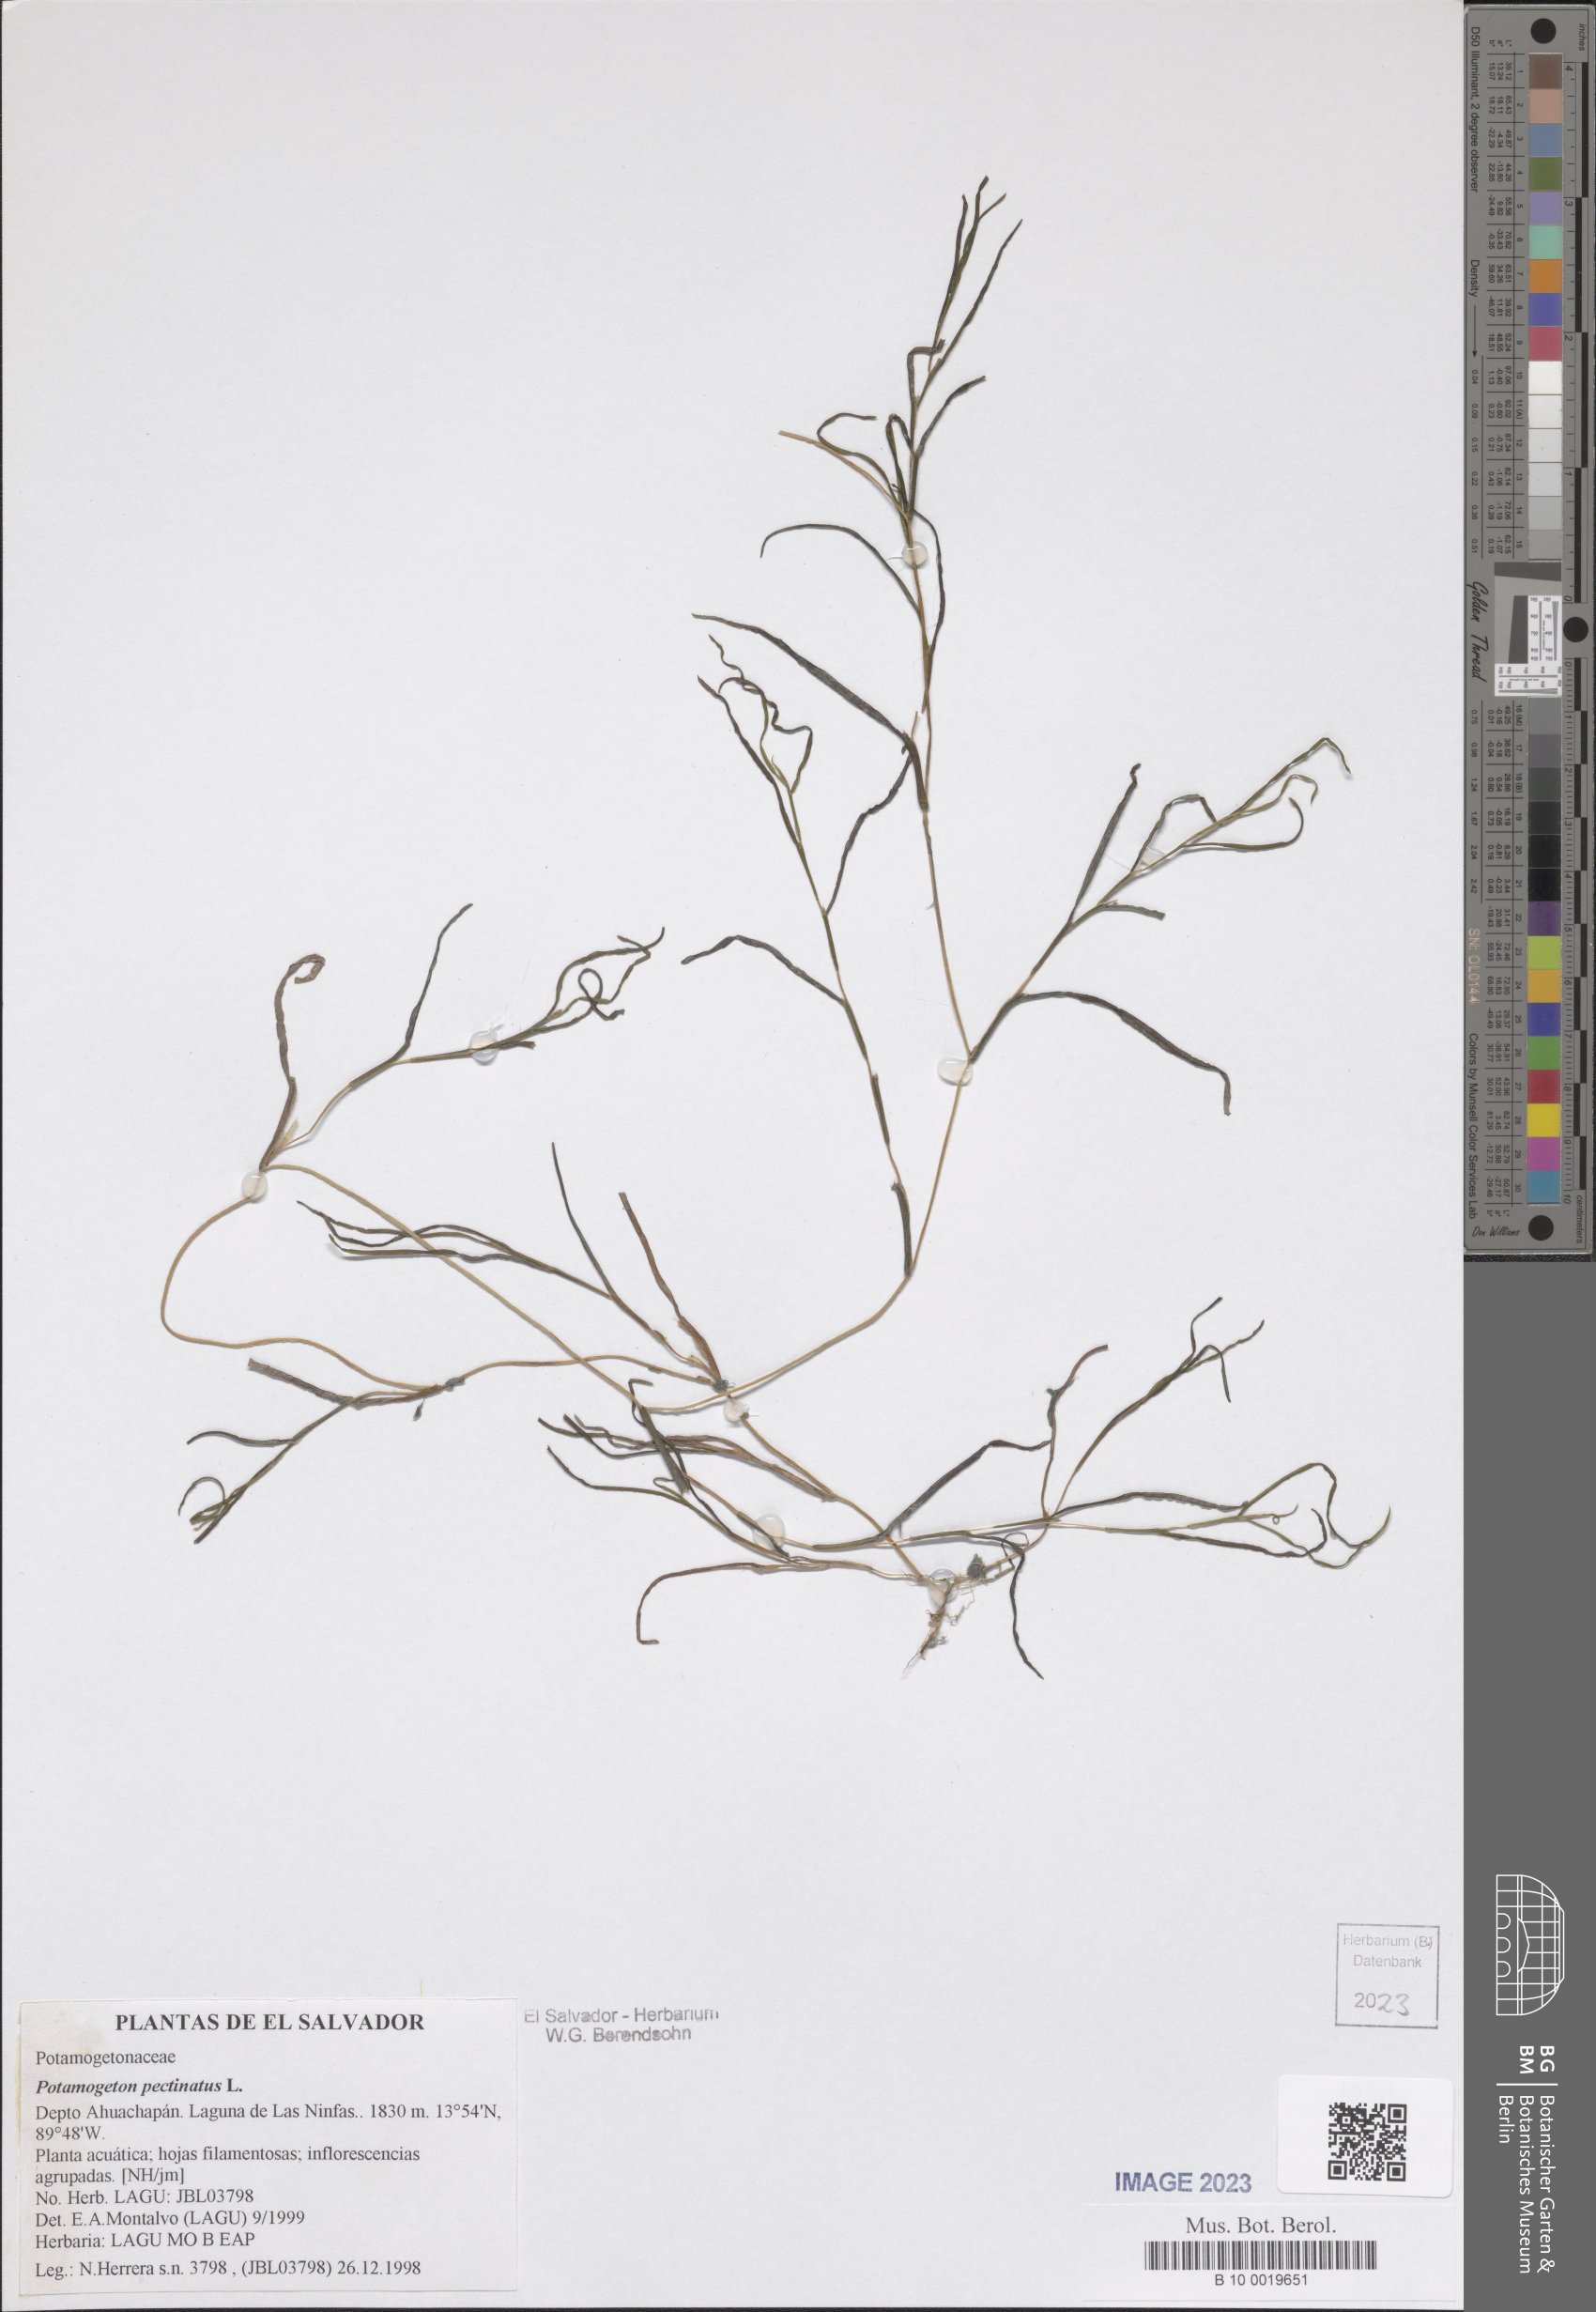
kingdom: Plantae
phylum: Tracheophyta
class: Liliopsida
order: Alismatales
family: Potamogetonaceae
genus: Stuckenia
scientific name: Stuckenia pectinata
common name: Sago pondweed
